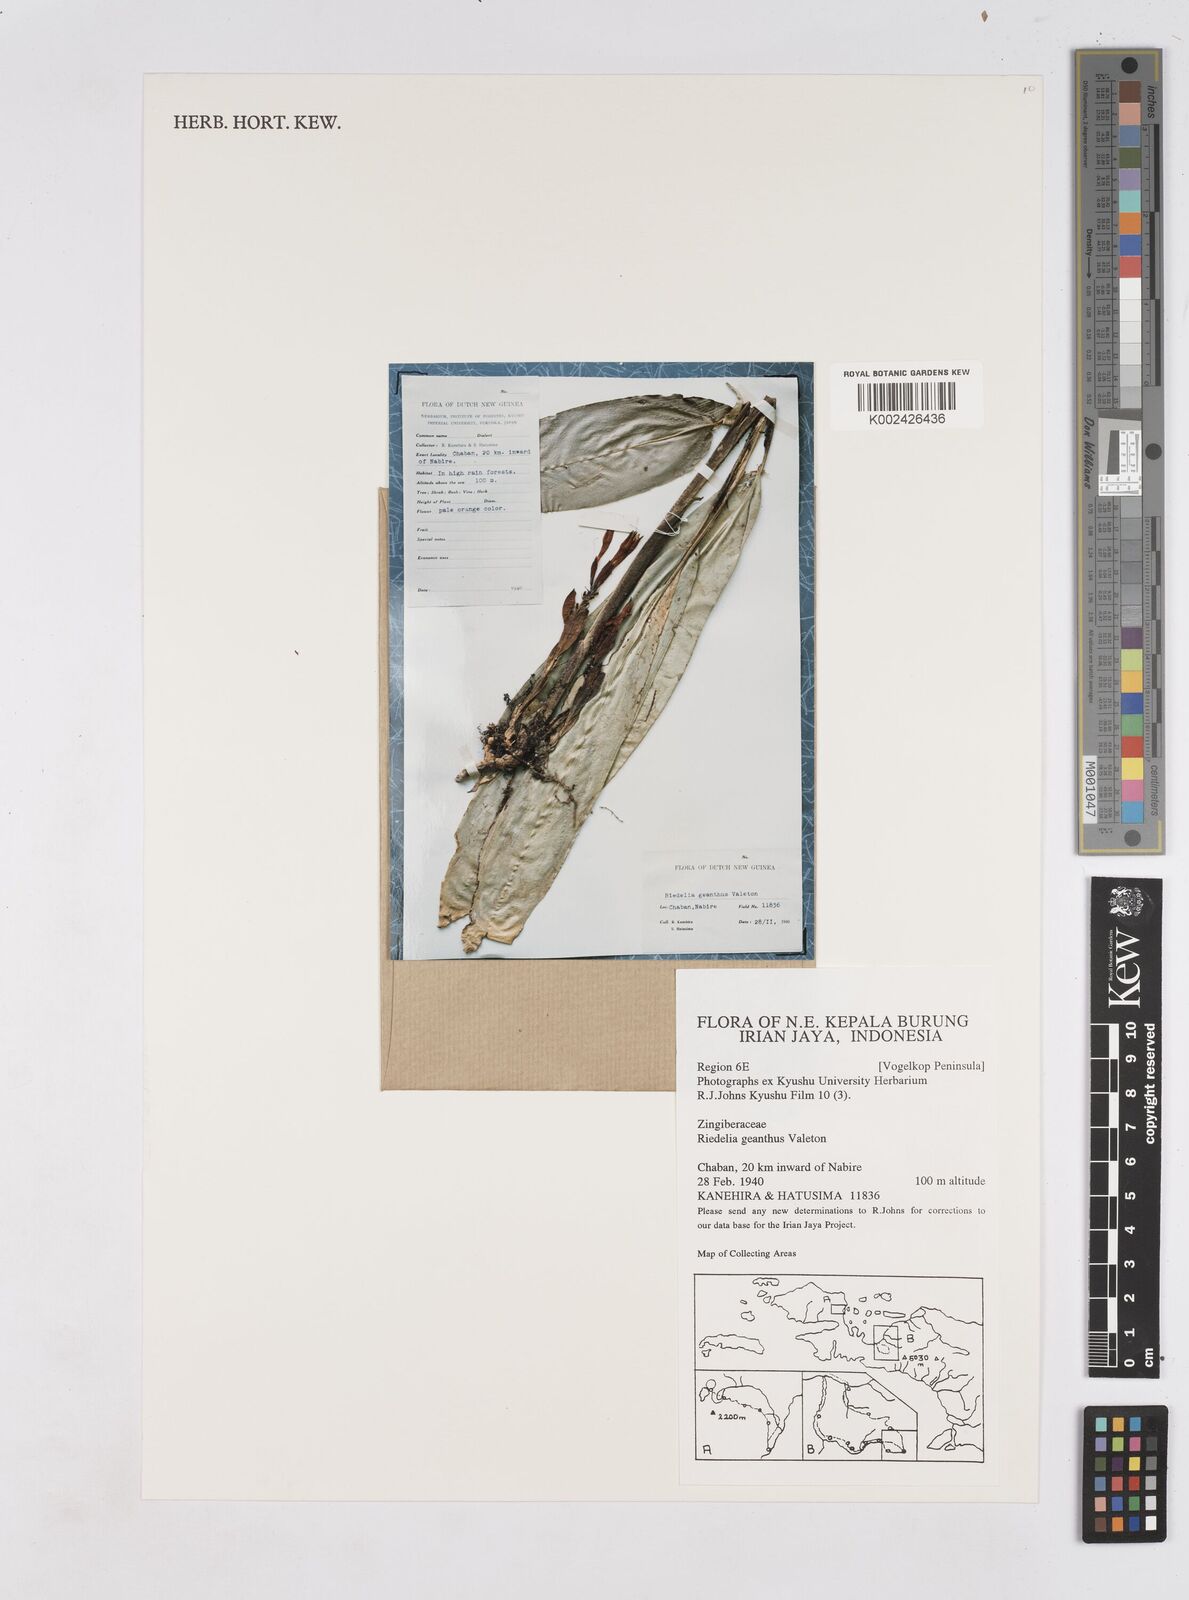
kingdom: Plantae
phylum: Tracheophyta
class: Liliopsida
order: Zingiberales
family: Zingiberaceae
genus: Riedelia
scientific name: Riedelia geanthus
